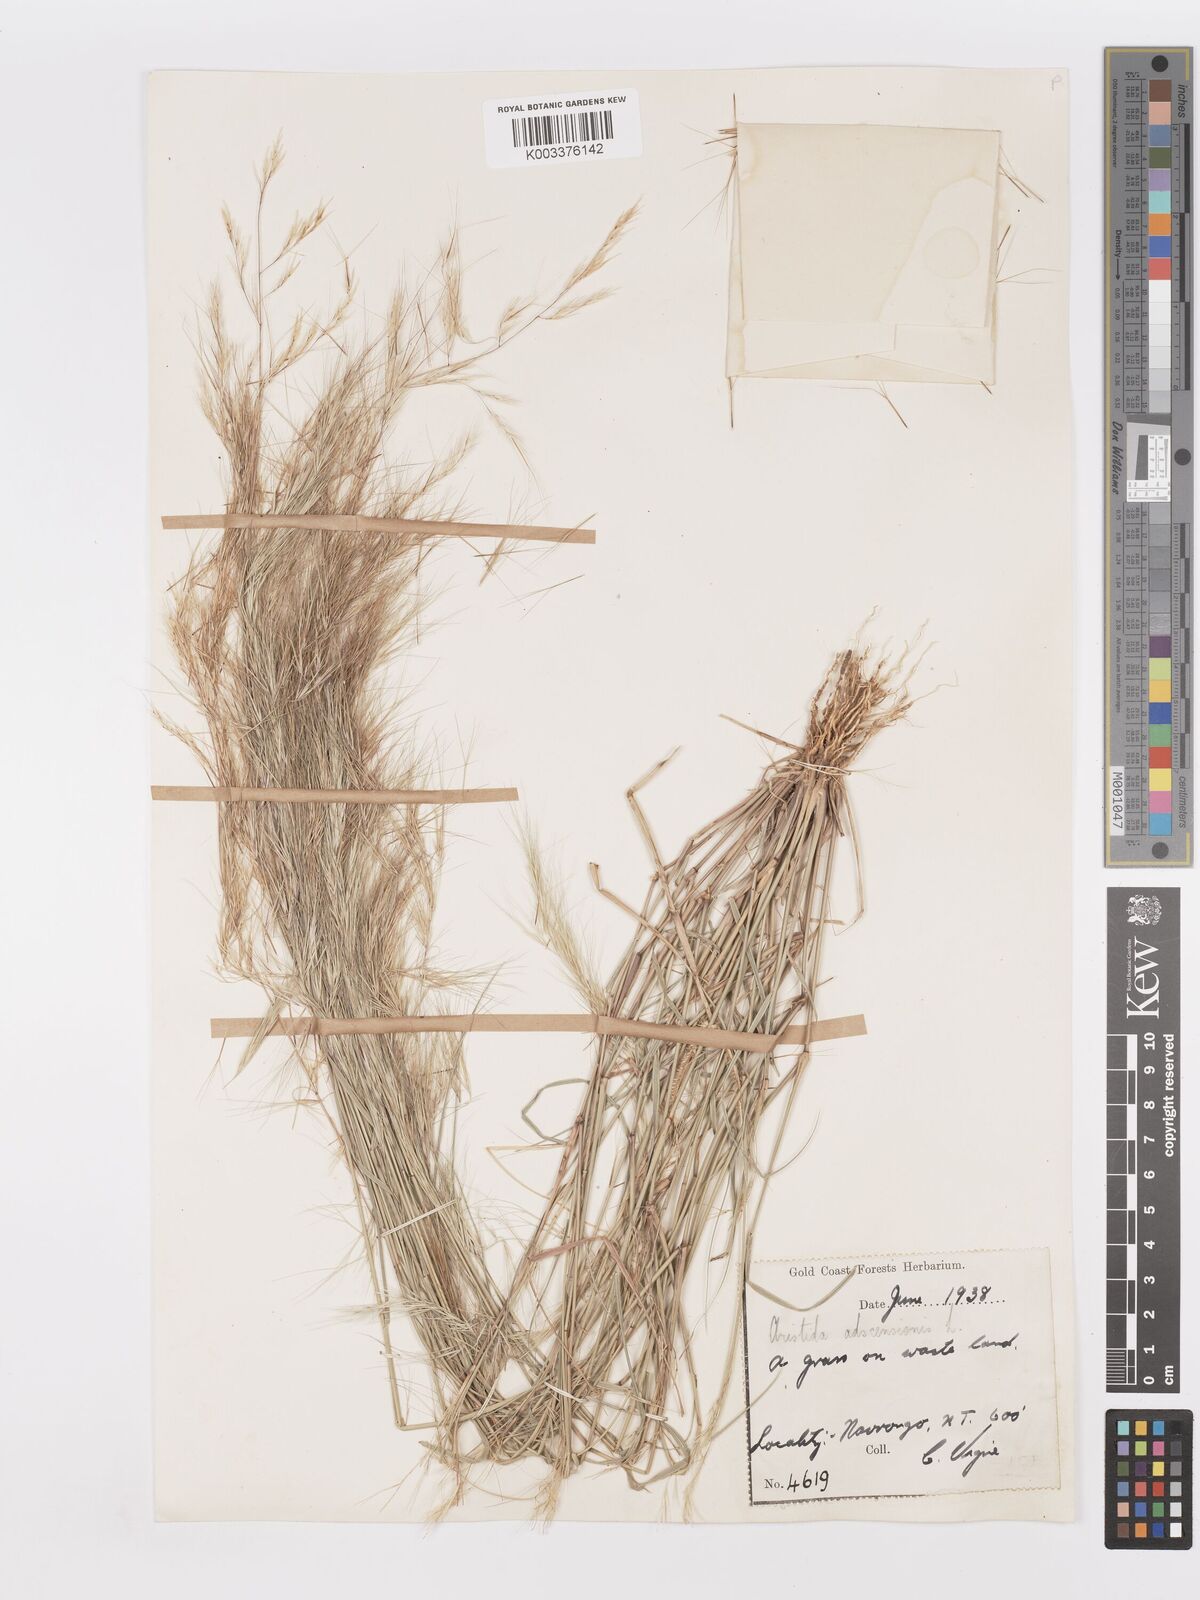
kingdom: Plantae
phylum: Tracheophyta
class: Liliopsida
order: Poales
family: Poaceae
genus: Aristida
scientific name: Aristida adscensionis
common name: Sixweeks threeawn
